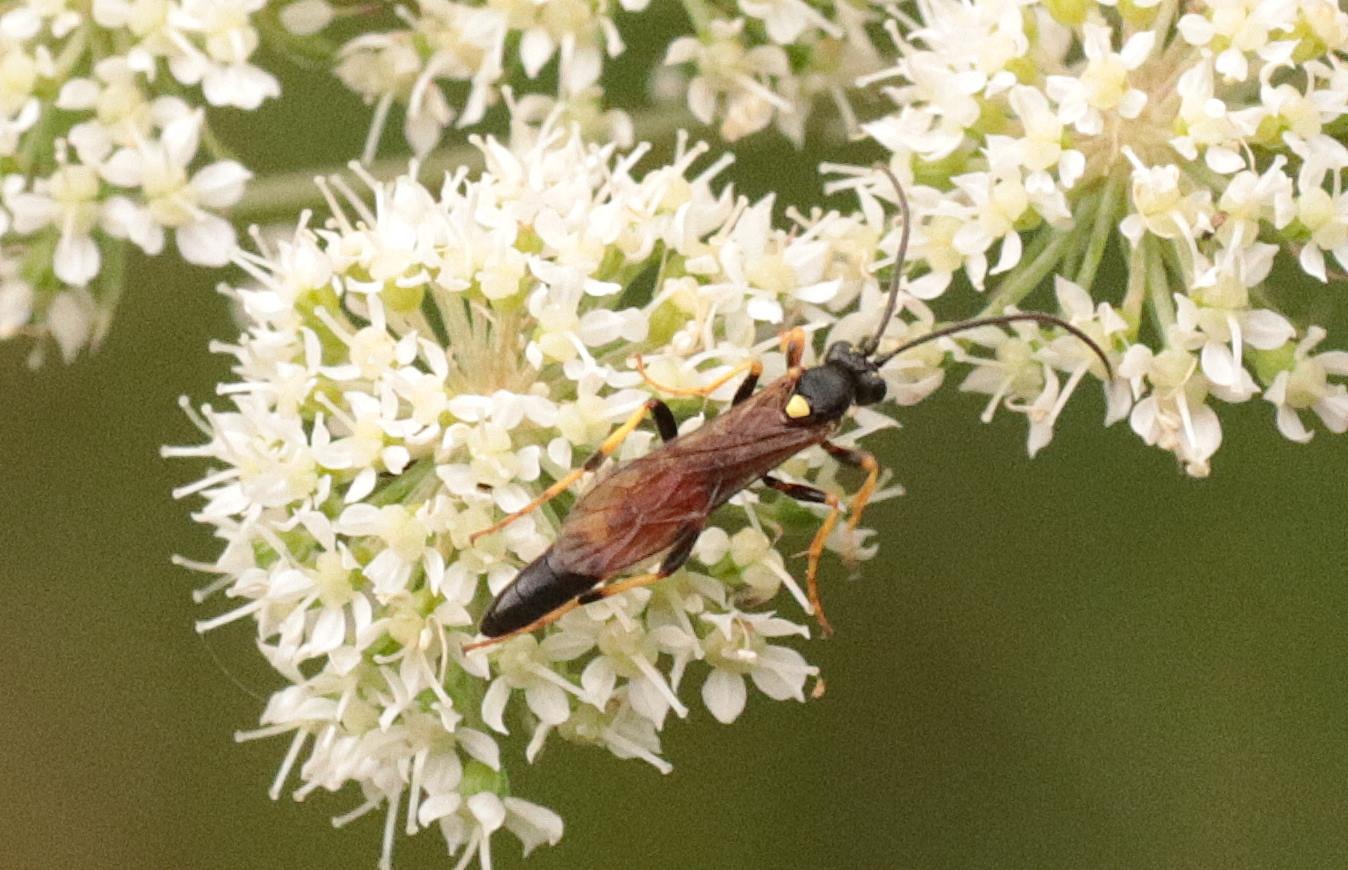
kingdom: Animalia
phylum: Arthropoda
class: Insecta
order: Hymenoptera
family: Ichneumonidae
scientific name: Ichneumonidae
